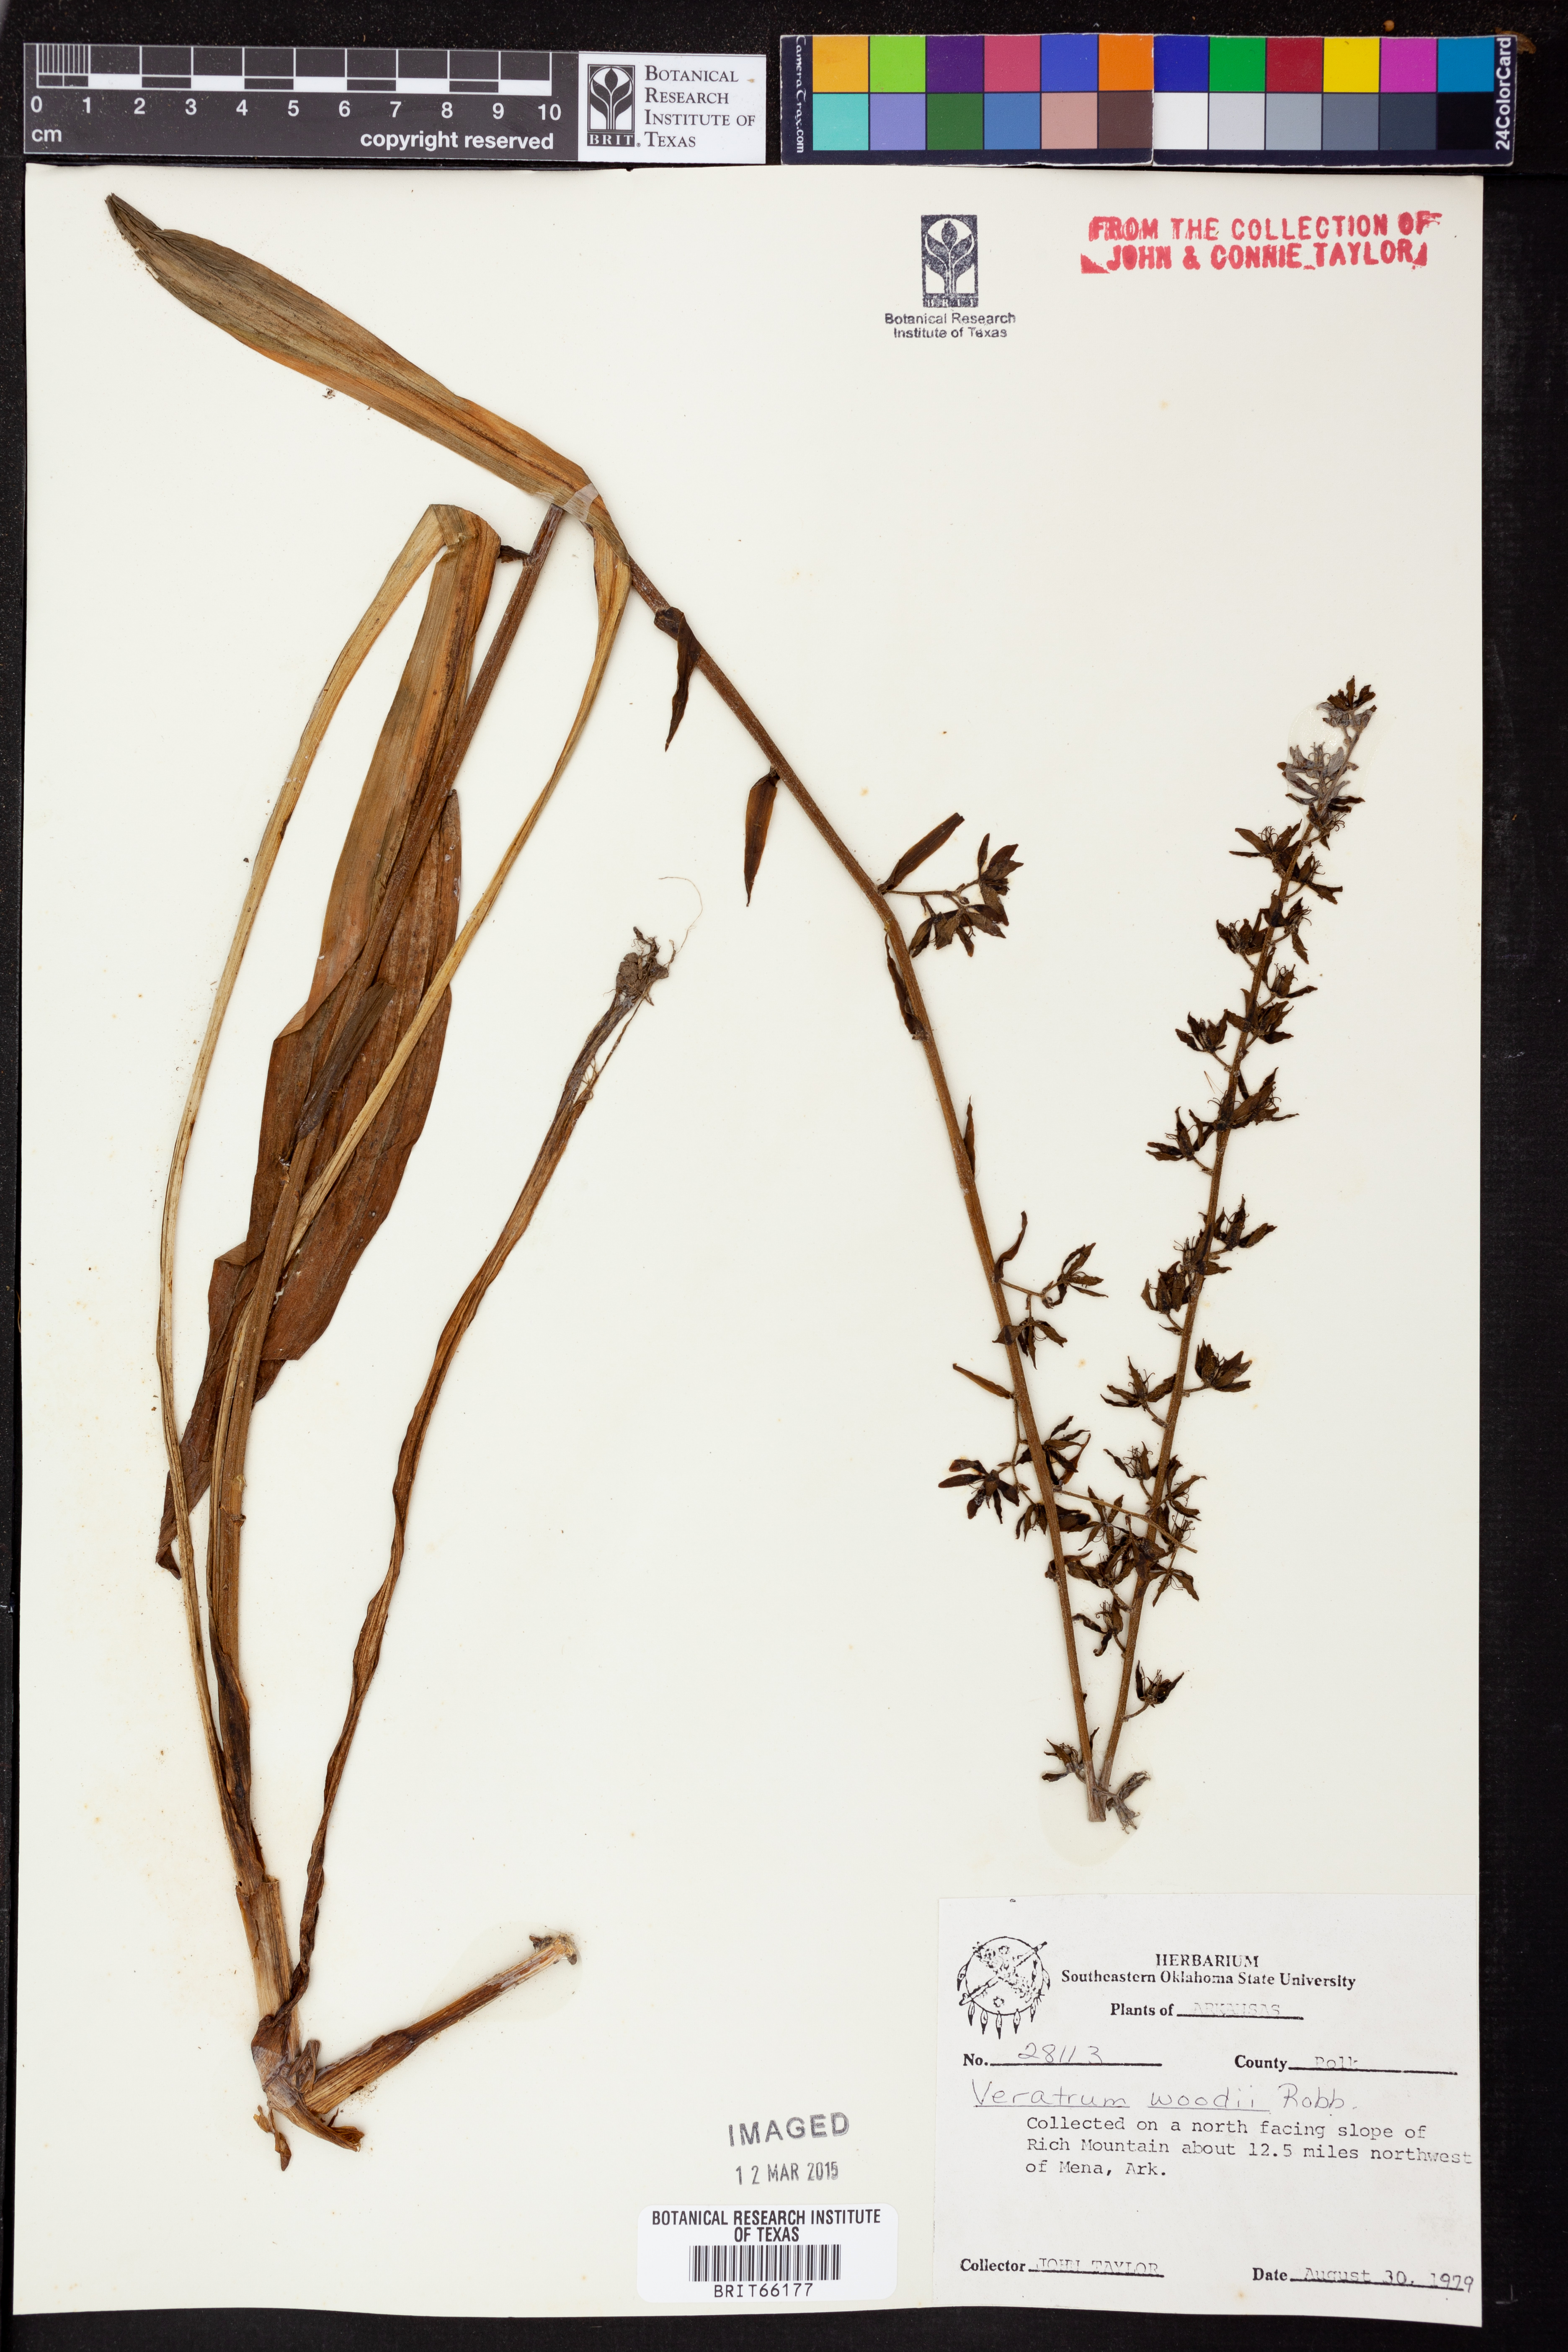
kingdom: Plantae
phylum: Tracheophyta
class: Liliopsida
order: Liliales
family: Melanthiaceae
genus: Melanthium
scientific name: Melanthium woodii
